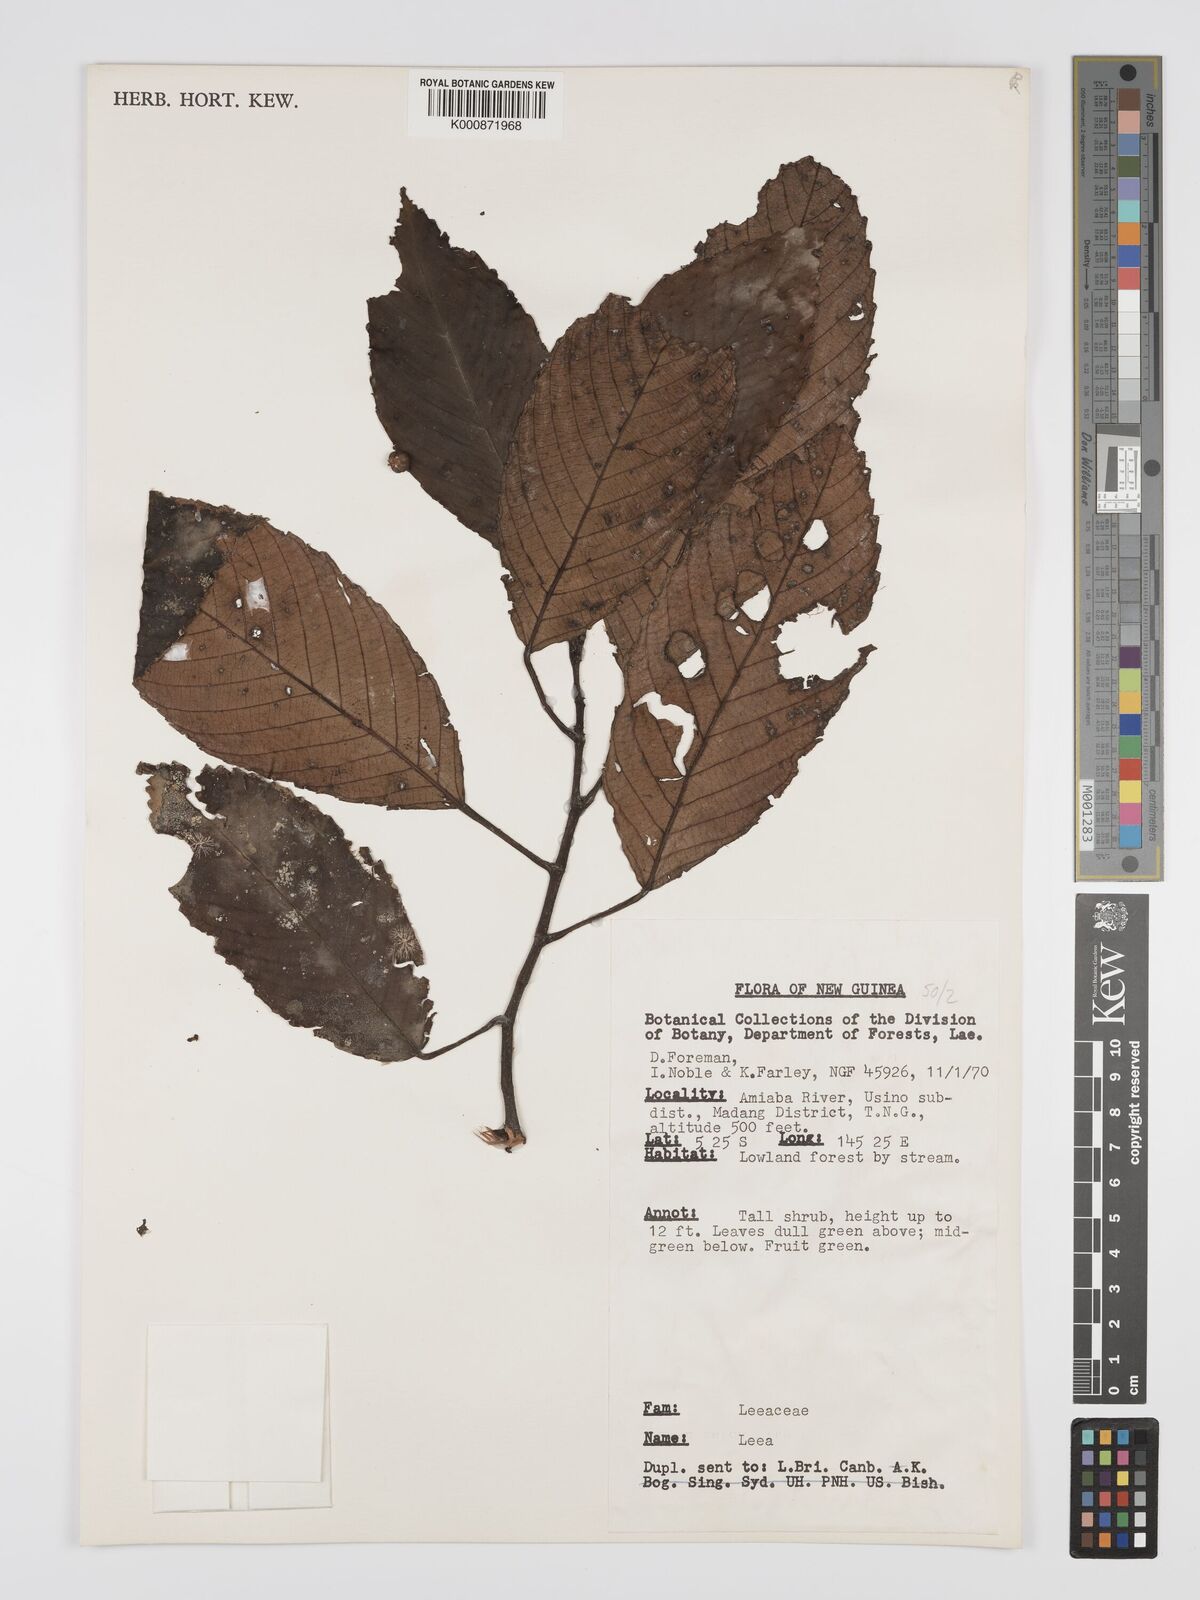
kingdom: Plantae
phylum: Tracheophyta
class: Magnoliopsida
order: Vitales
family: Vitaceae
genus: Leea
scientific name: Leea
